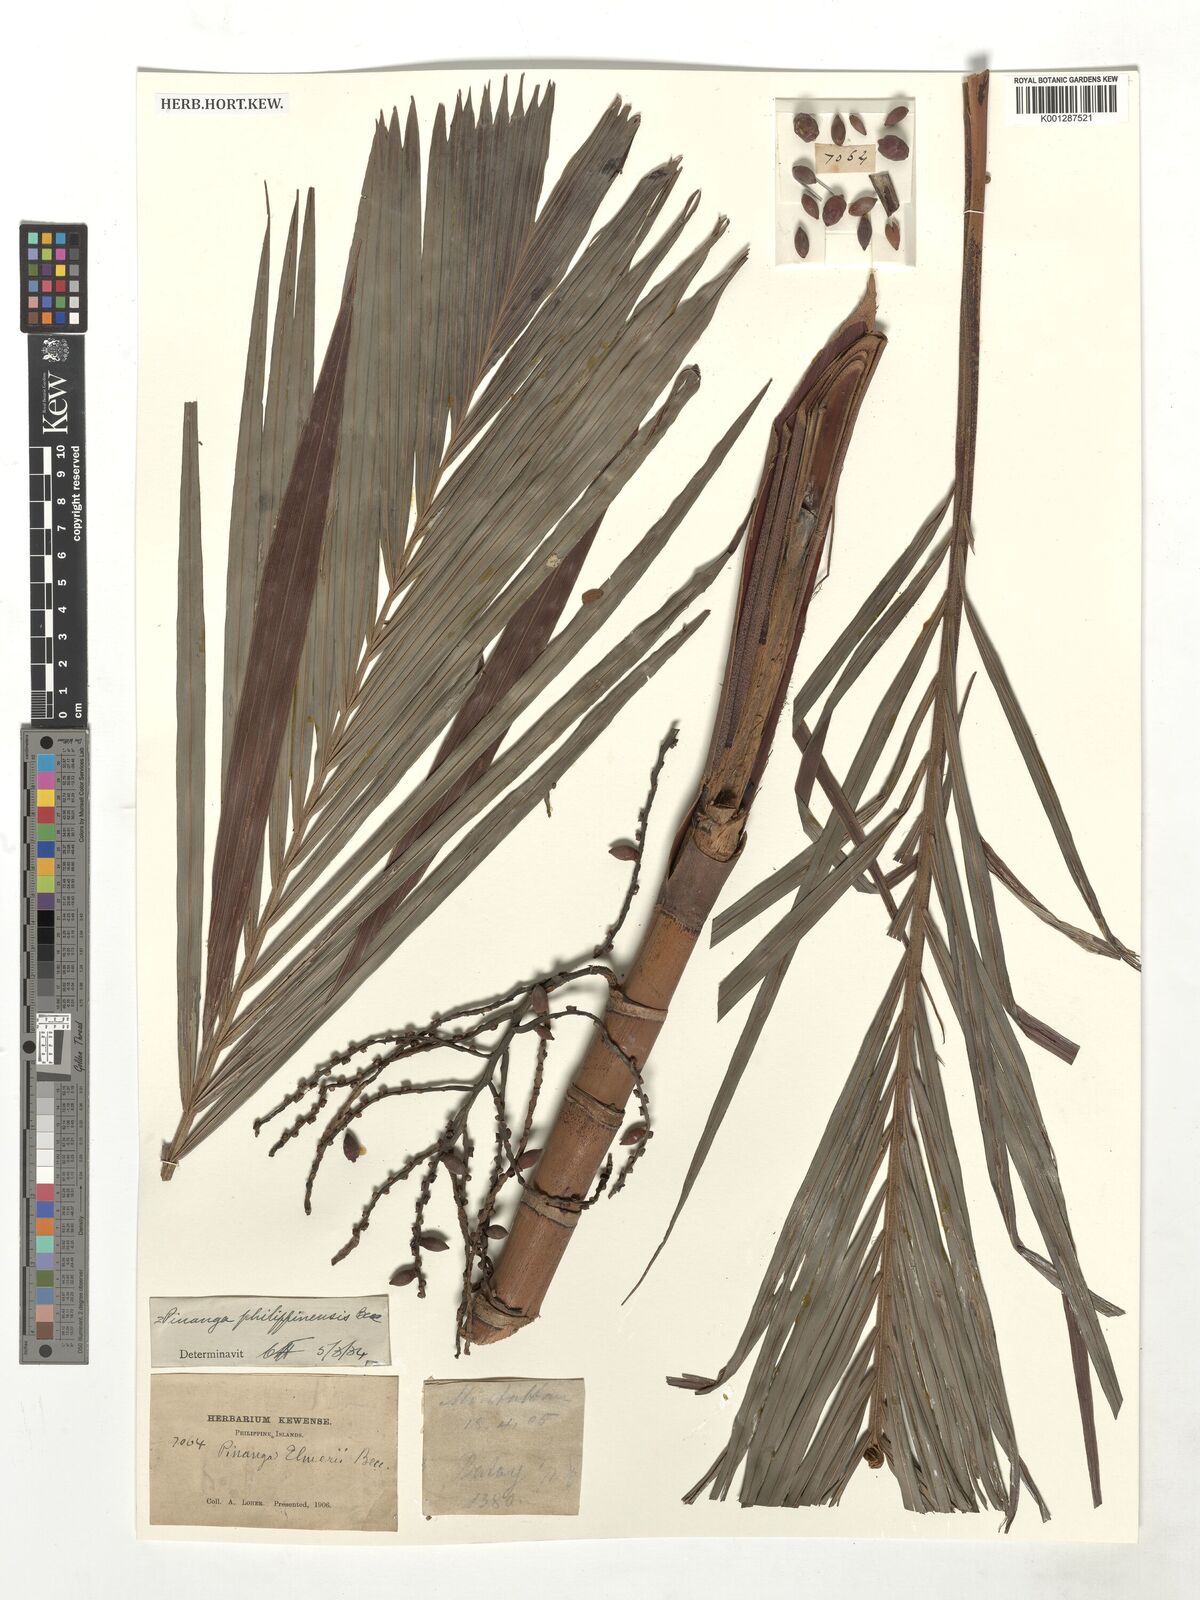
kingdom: Plantae
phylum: Tracheophyta
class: Liliopsida
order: Arecales
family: Arecaceae
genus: Pinanga
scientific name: Pinanga philippinensis
